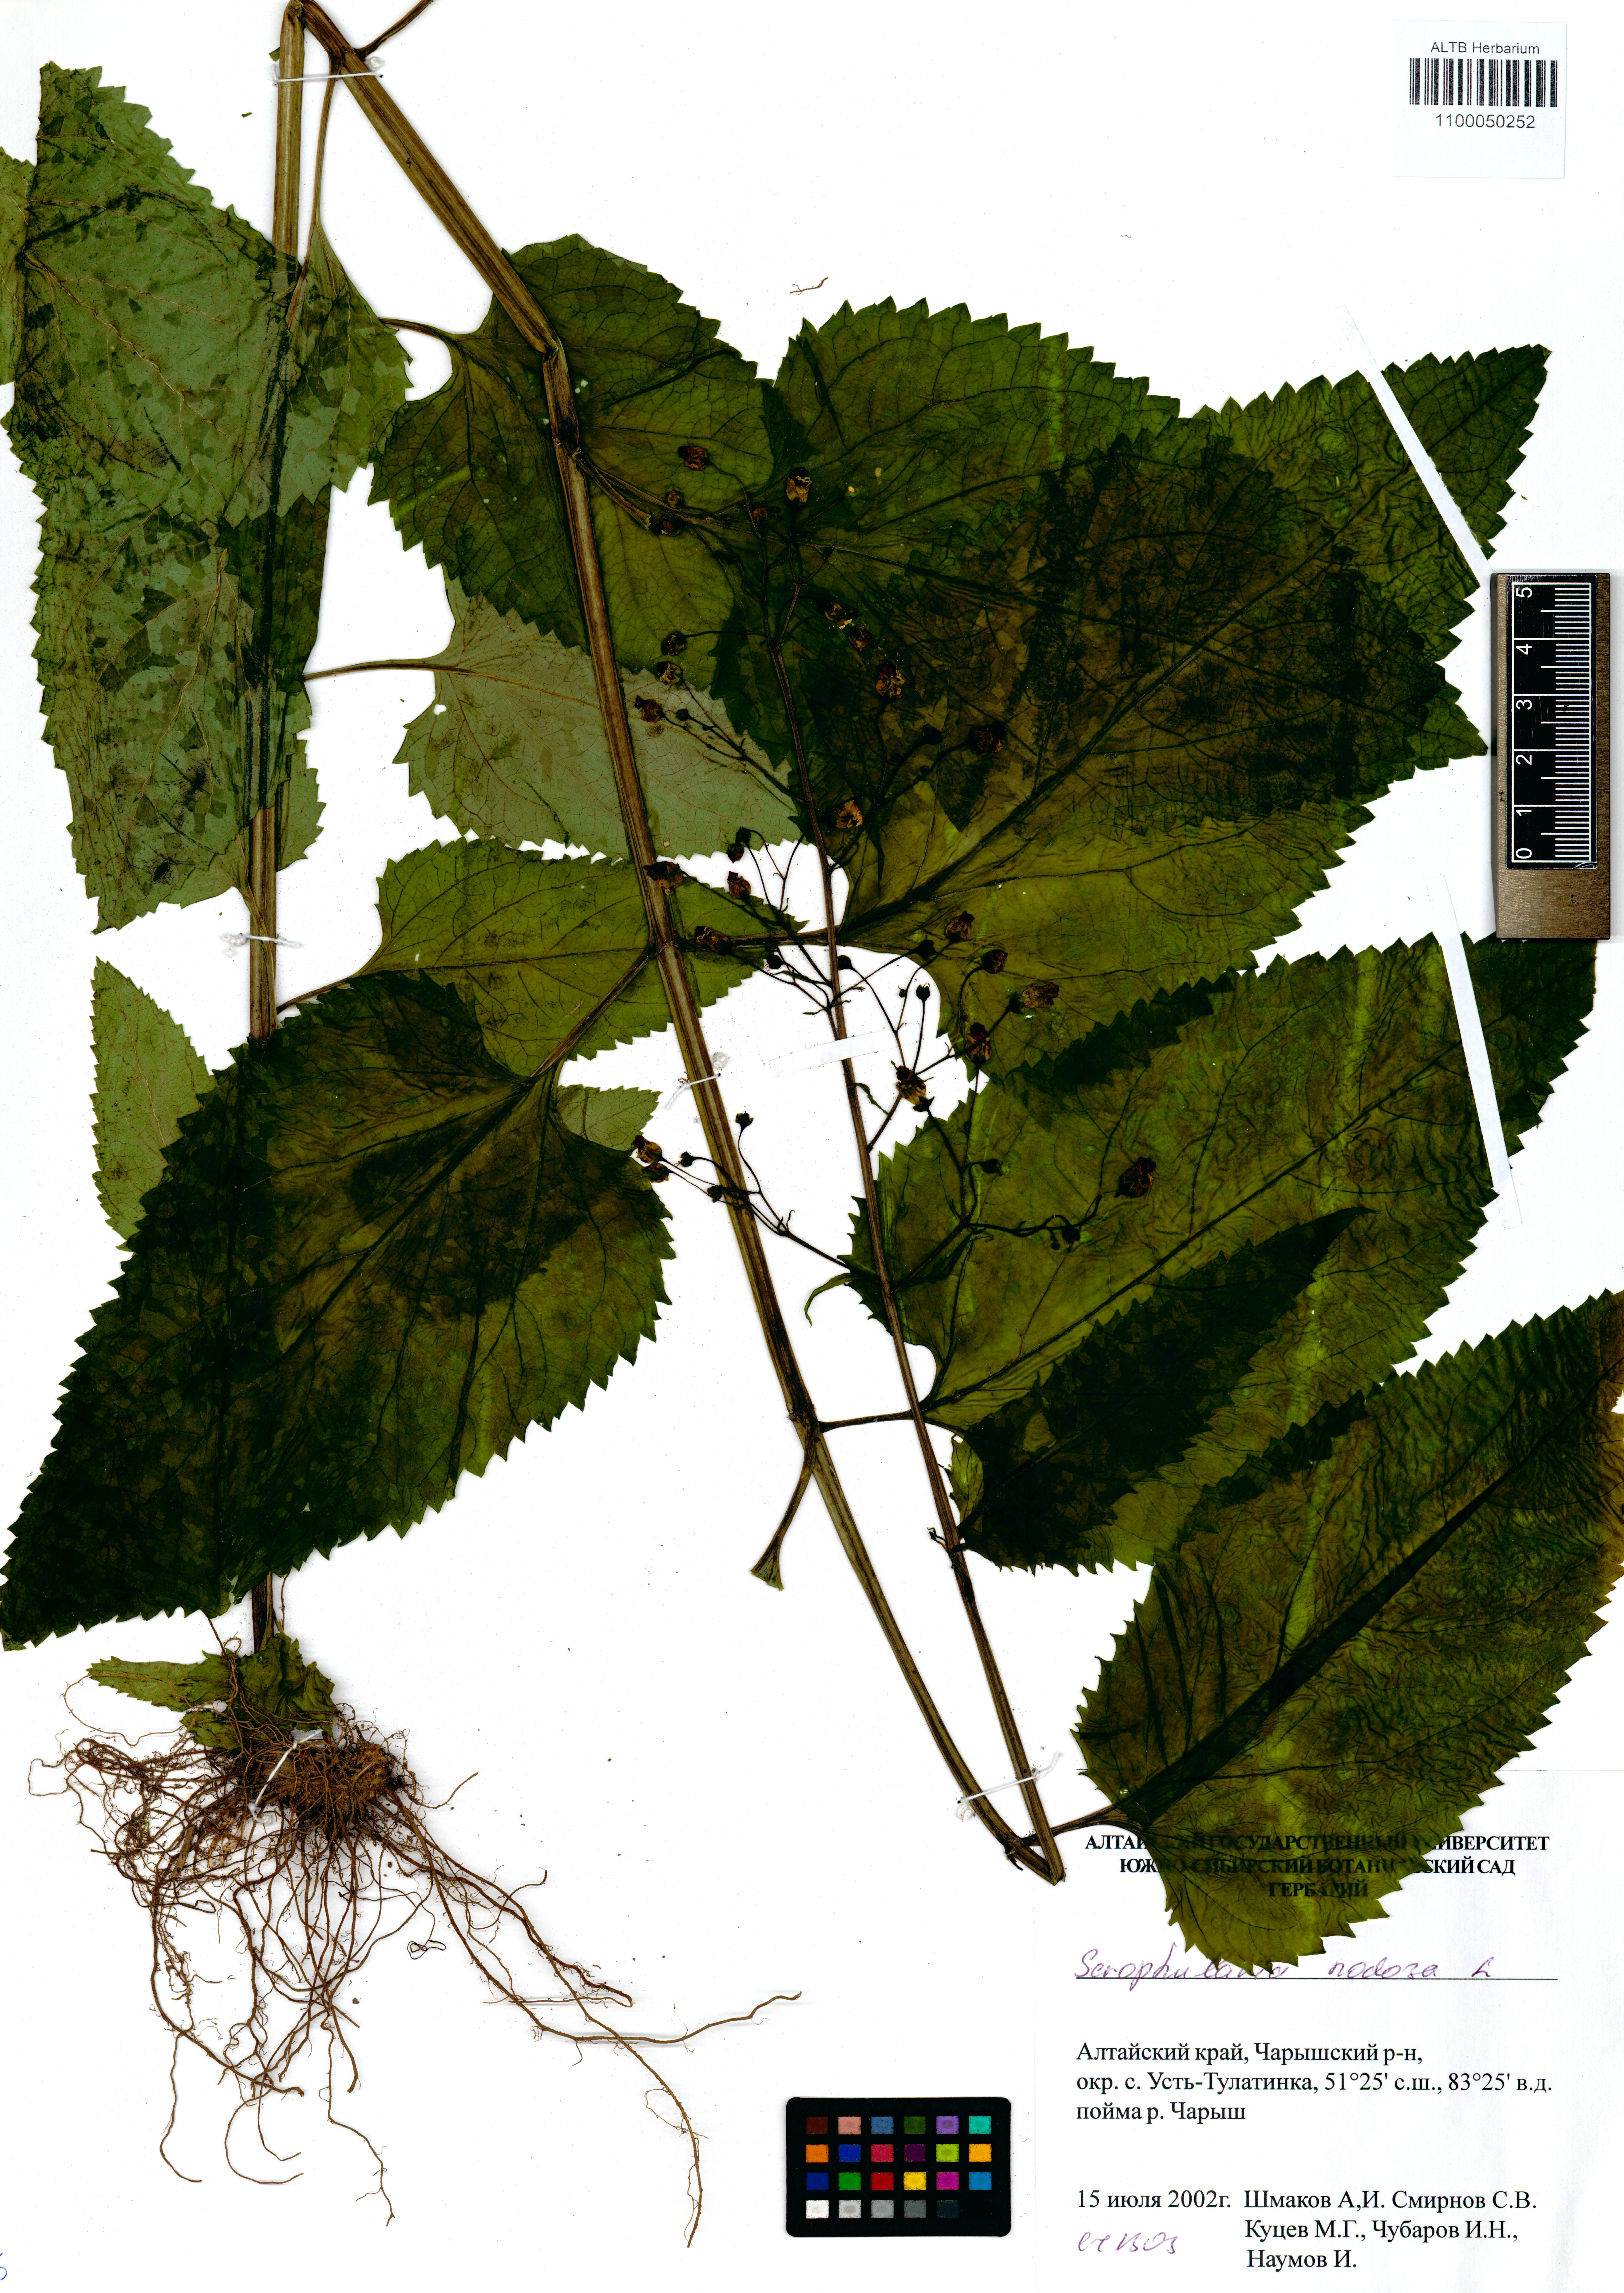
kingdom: Plantae
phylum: Tracheophyta
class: Magnoliopsida
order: Lamiales
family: Scrophulariaceae
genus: Scrophularia
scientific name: Scrophularia nodosa
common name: Common figwort
